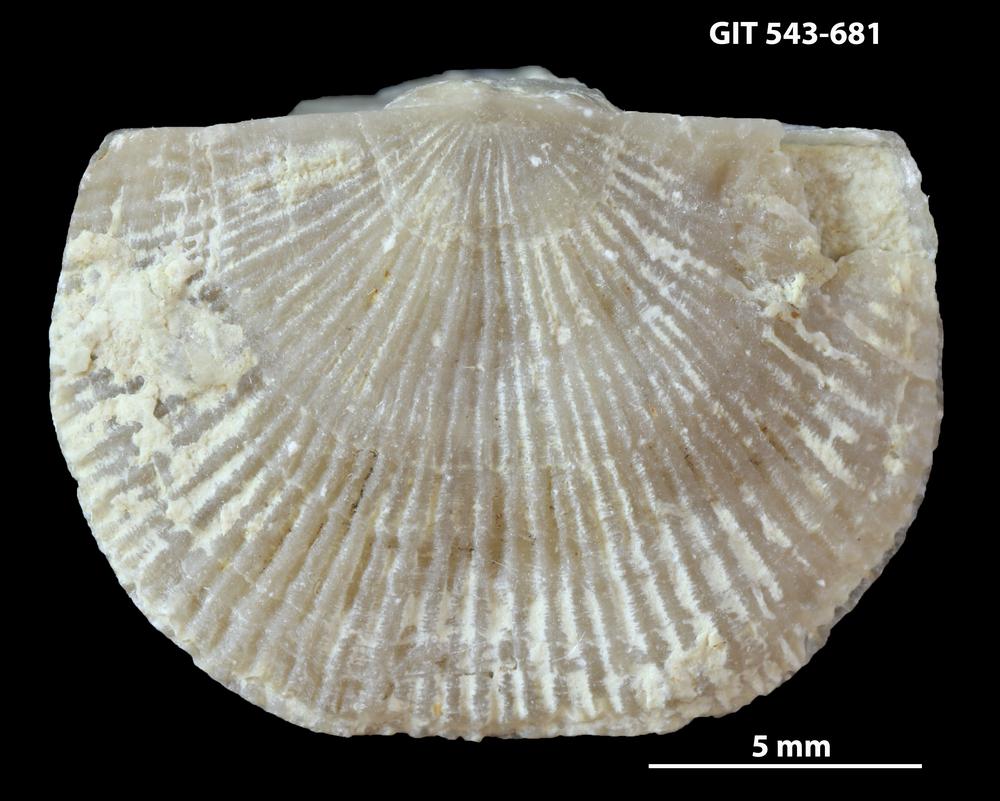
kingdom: Animalia
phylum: Brachiopoda
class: Rhynchonellata
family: Clitambonitidae
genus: Vellamo
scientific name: Vellamo oandoensis
